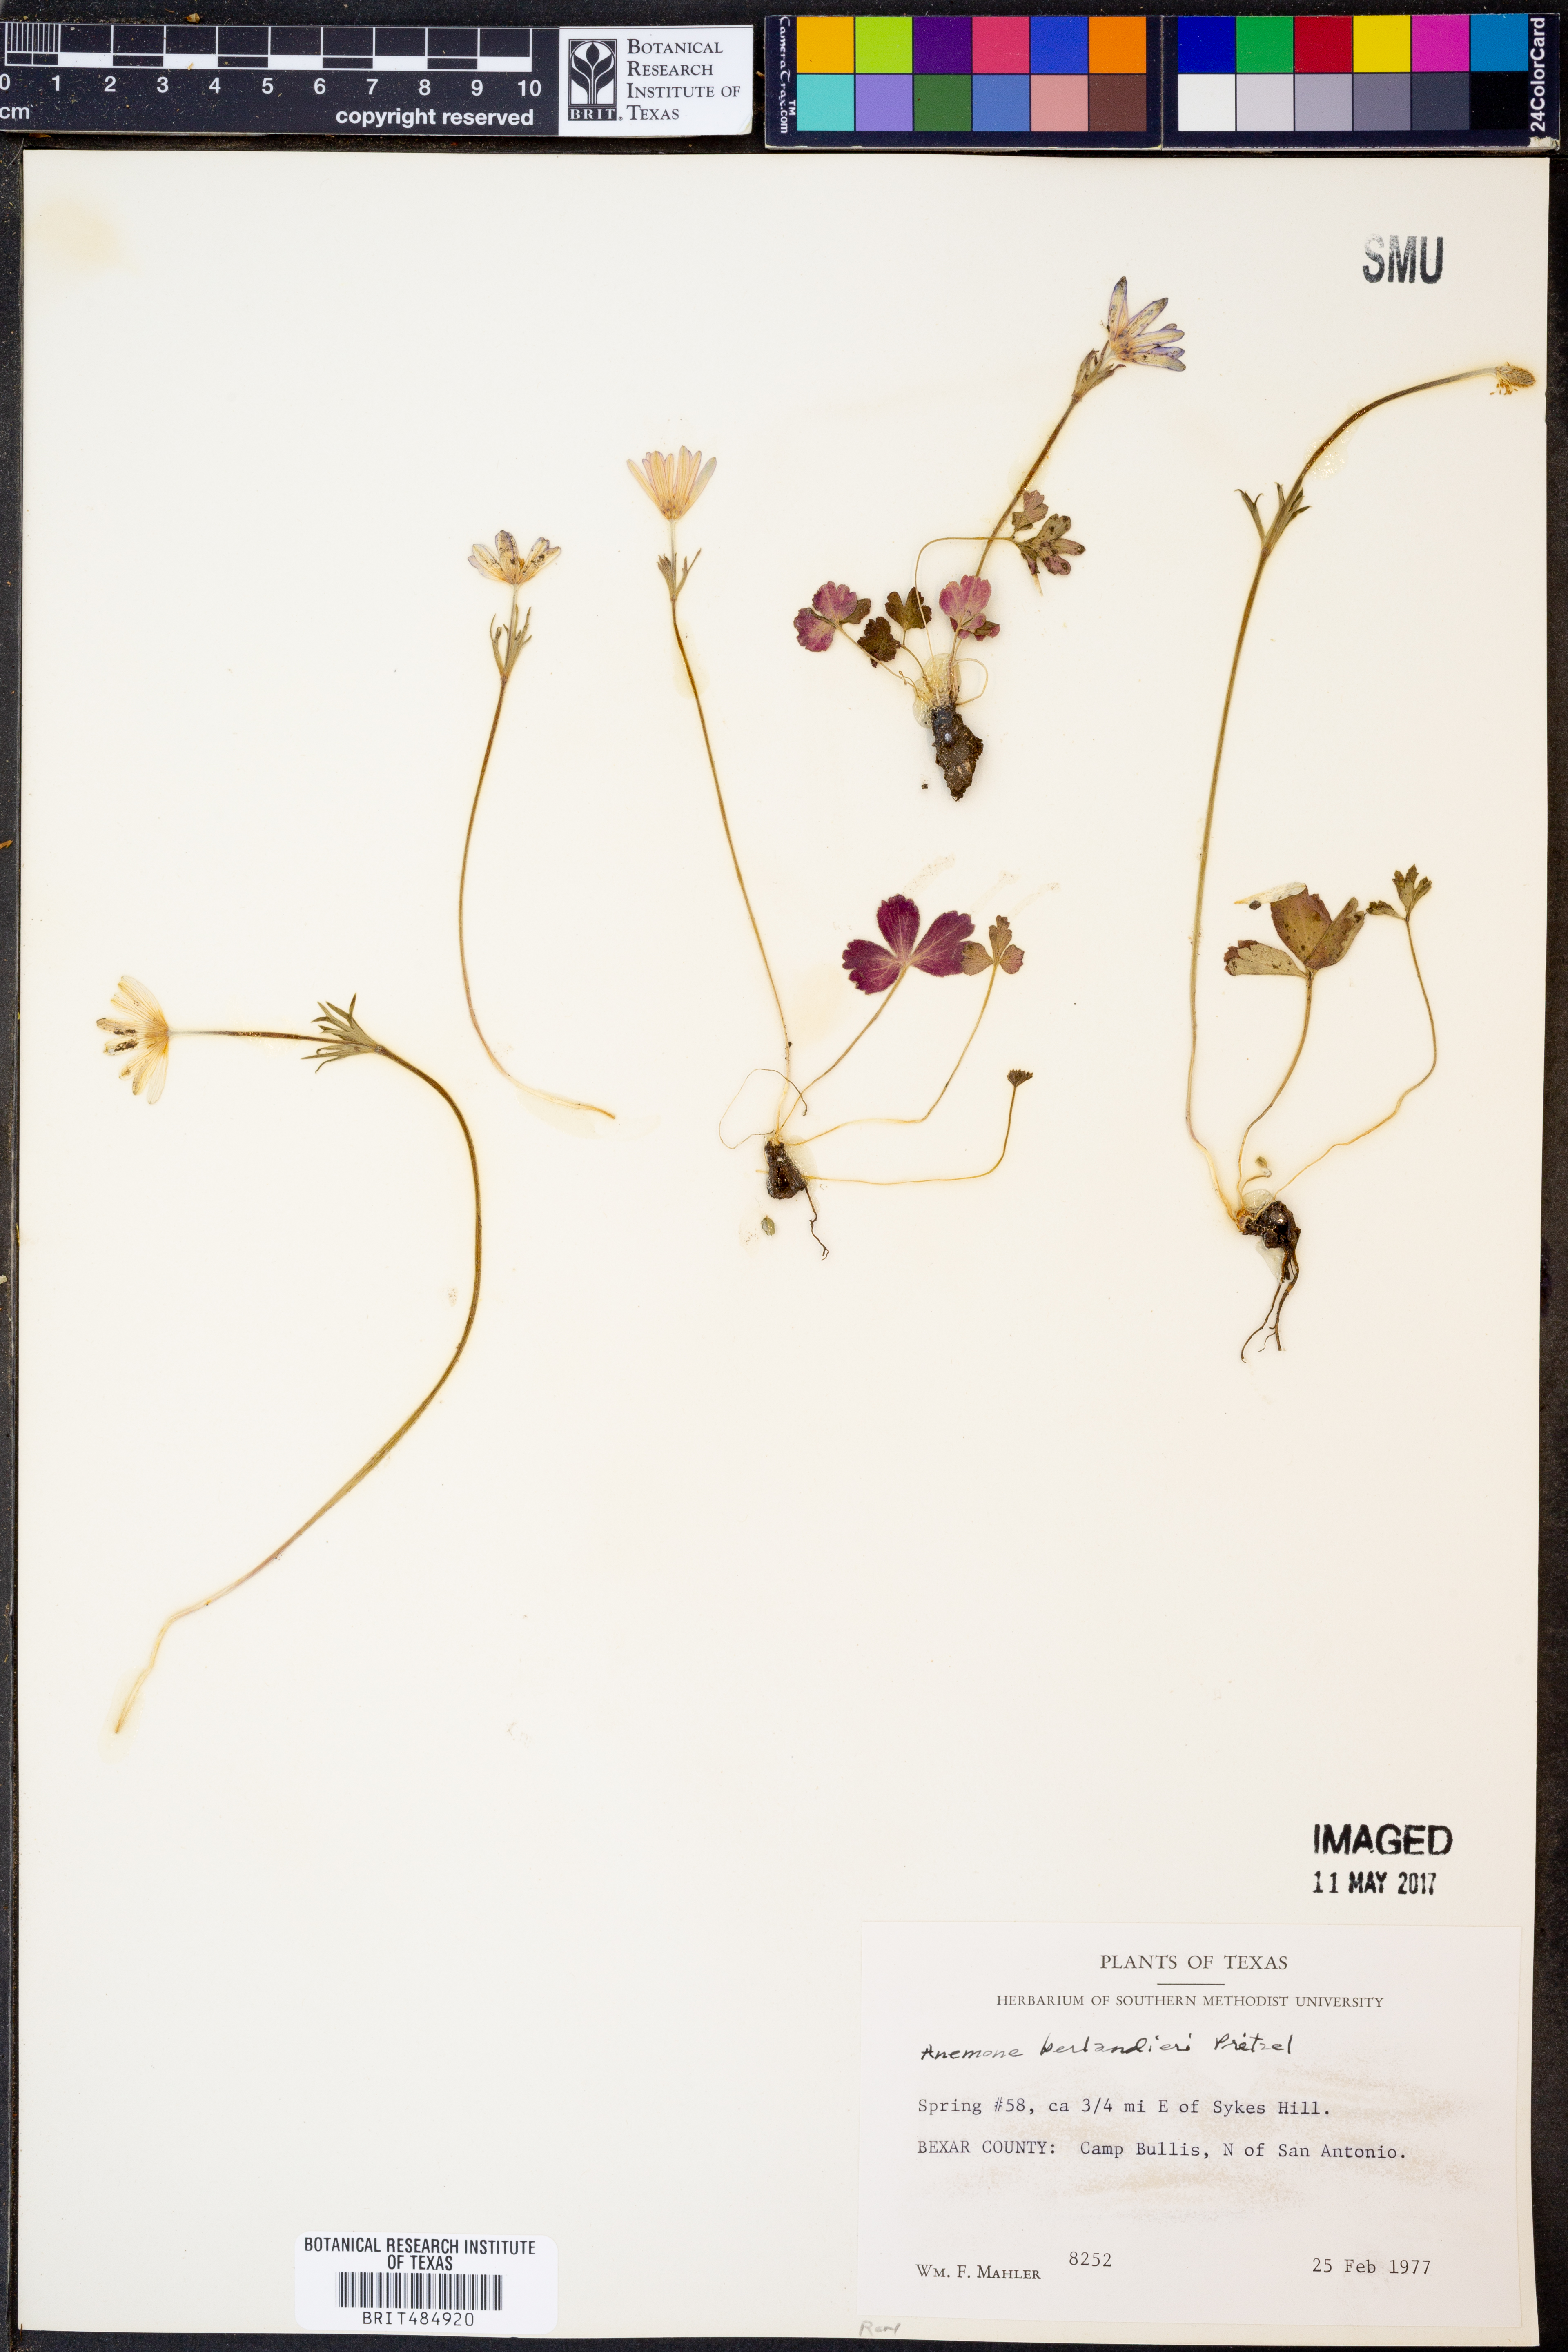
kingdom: Plantae
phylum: Tracheophyta
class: Magnoliopsida
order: Ranunculales
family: Ranunculaceae
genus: Anemone
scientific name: Anemone berlandieri
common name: Ten-petal anemone
